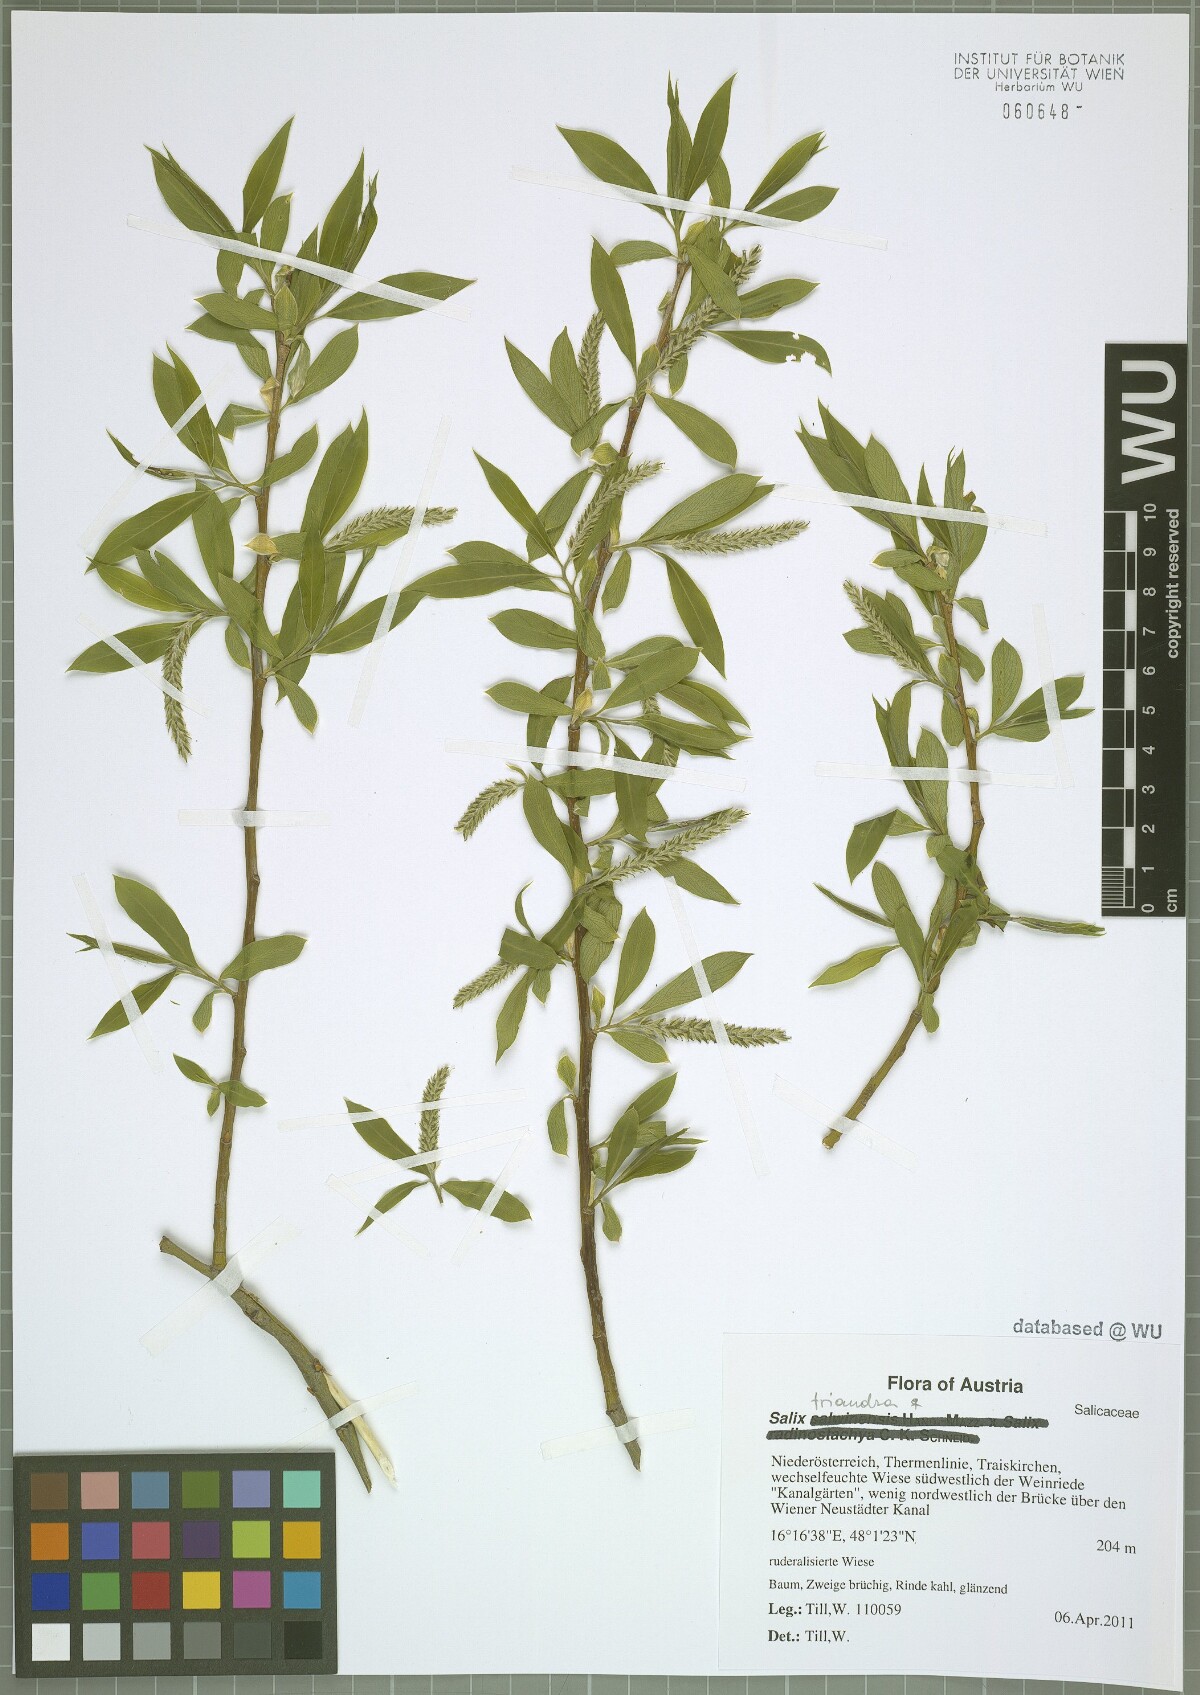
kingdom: Plantae
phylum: Tracheophyta
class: Magnoliopsida
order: Malpighiales
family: Salicaceae
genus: Salix
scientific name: Salix triandra
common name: Almond willow
